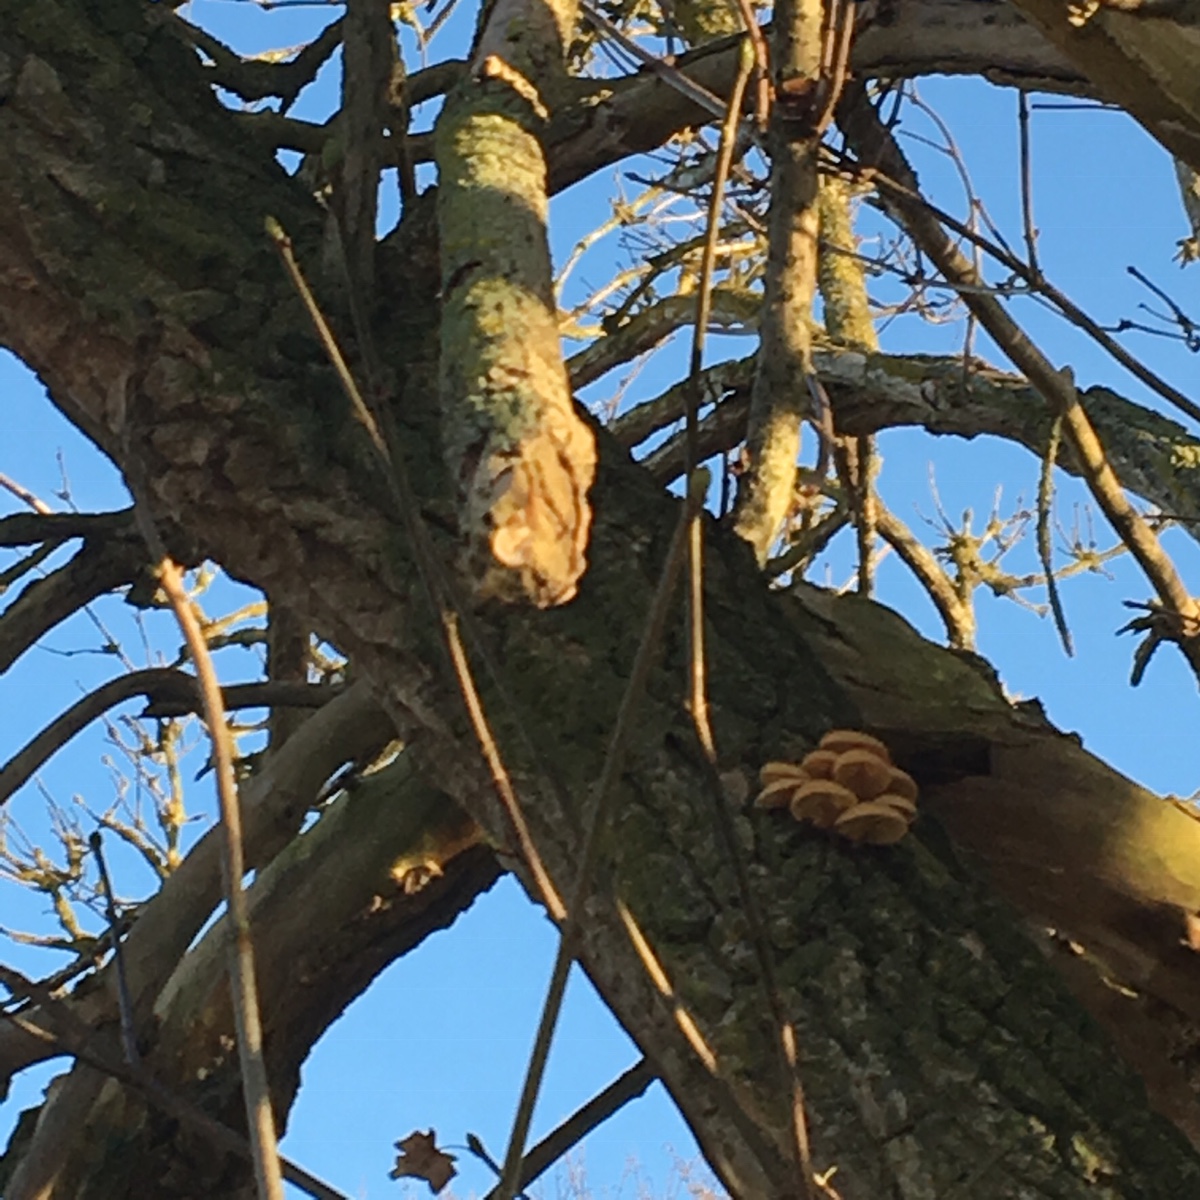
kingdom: Fungi
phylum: Basidiomycota
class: Agaricomycetes
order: Agaricales
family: Physalacriaceae
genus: Flammulina
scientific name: Flammulina velutipes
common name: gul fløjlsfod
